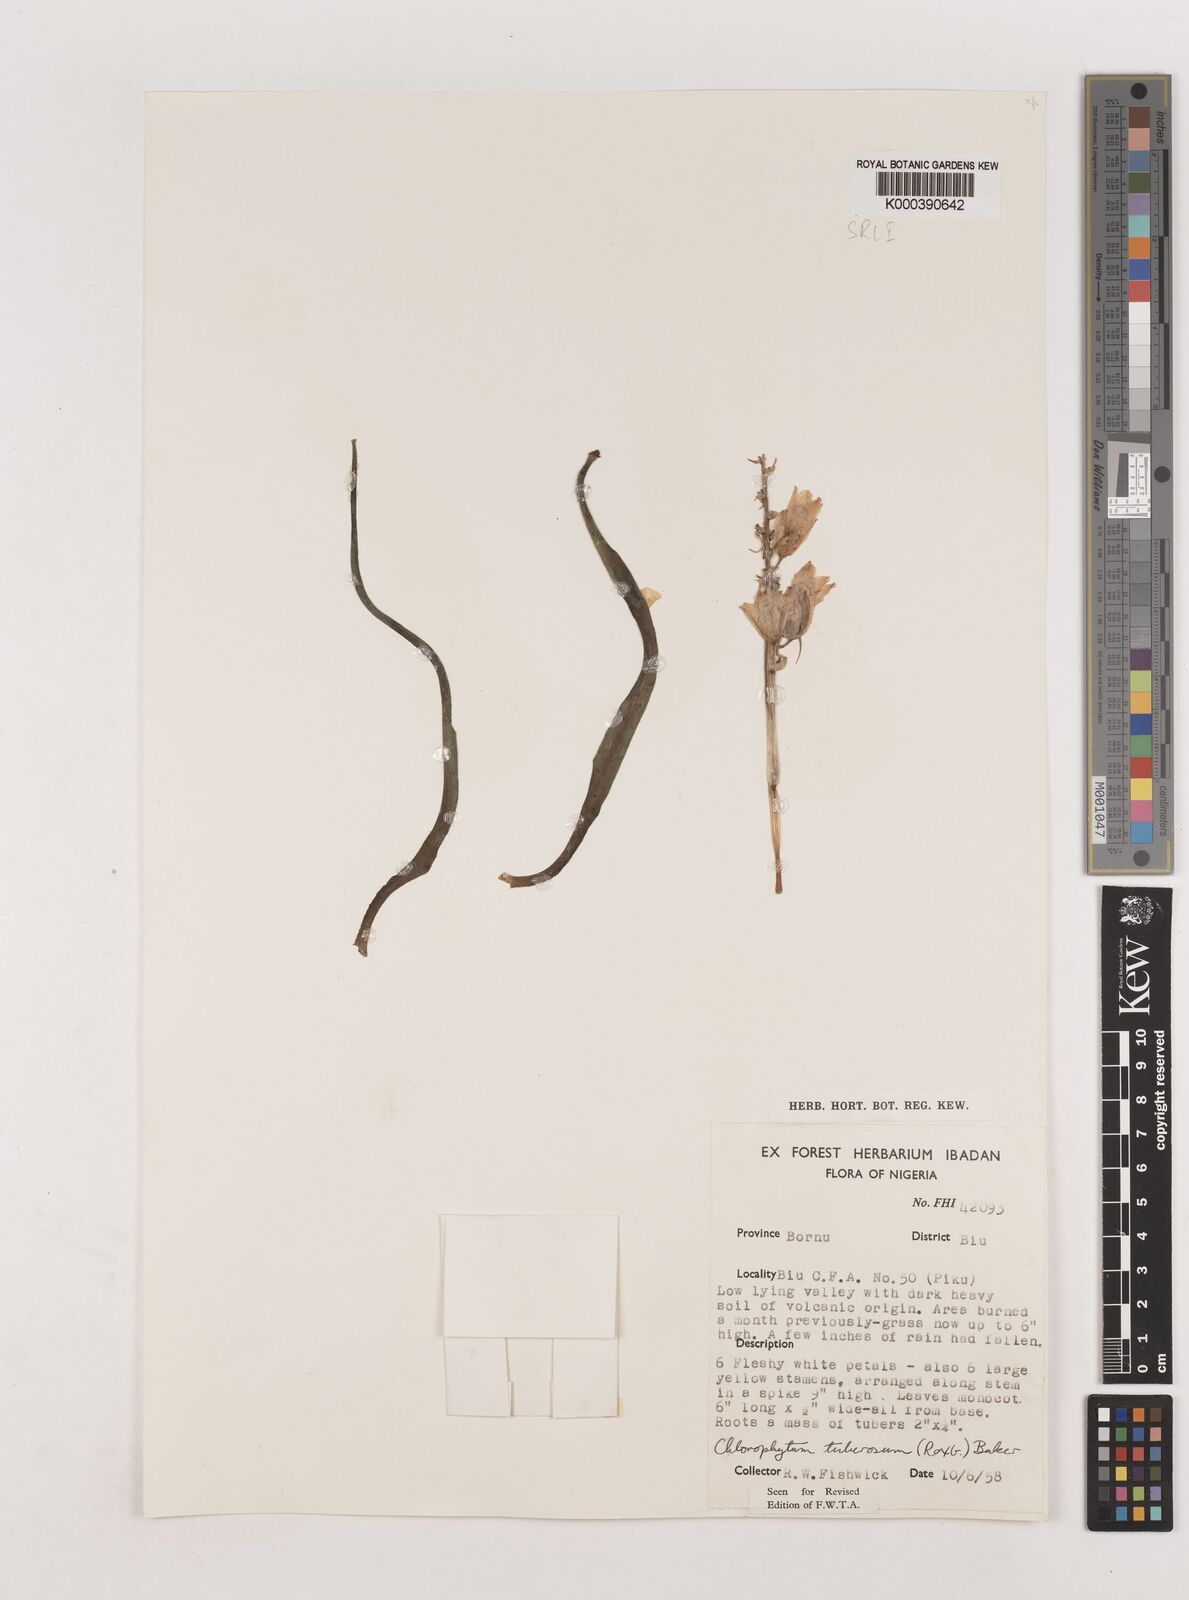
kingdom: Plantae
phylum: Tracheophyta
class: Liliopsida
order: Asparagales
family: Asparagaceae
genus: Chlorophytum
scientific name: Chlorophytum tuberosum
